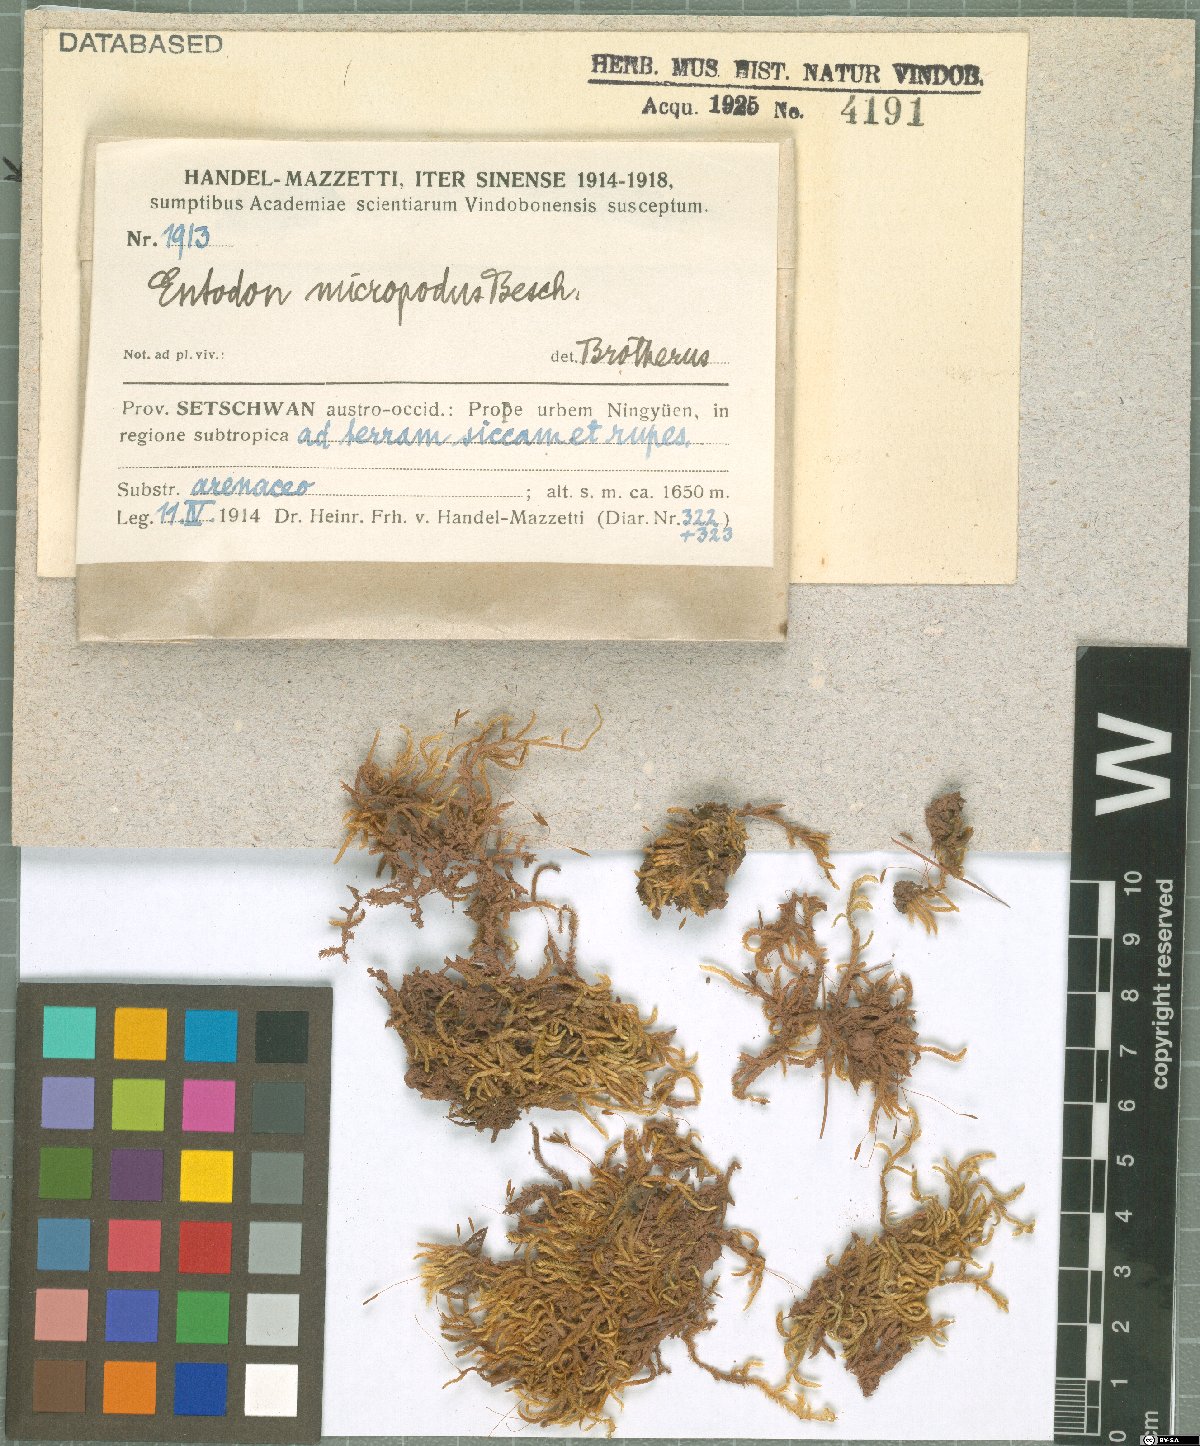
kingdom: Plantae
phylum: Bryophyta
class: Bryopsida
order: Hypnales
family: Entodontaceae
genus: Entodon
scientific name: Entodon prorepens
